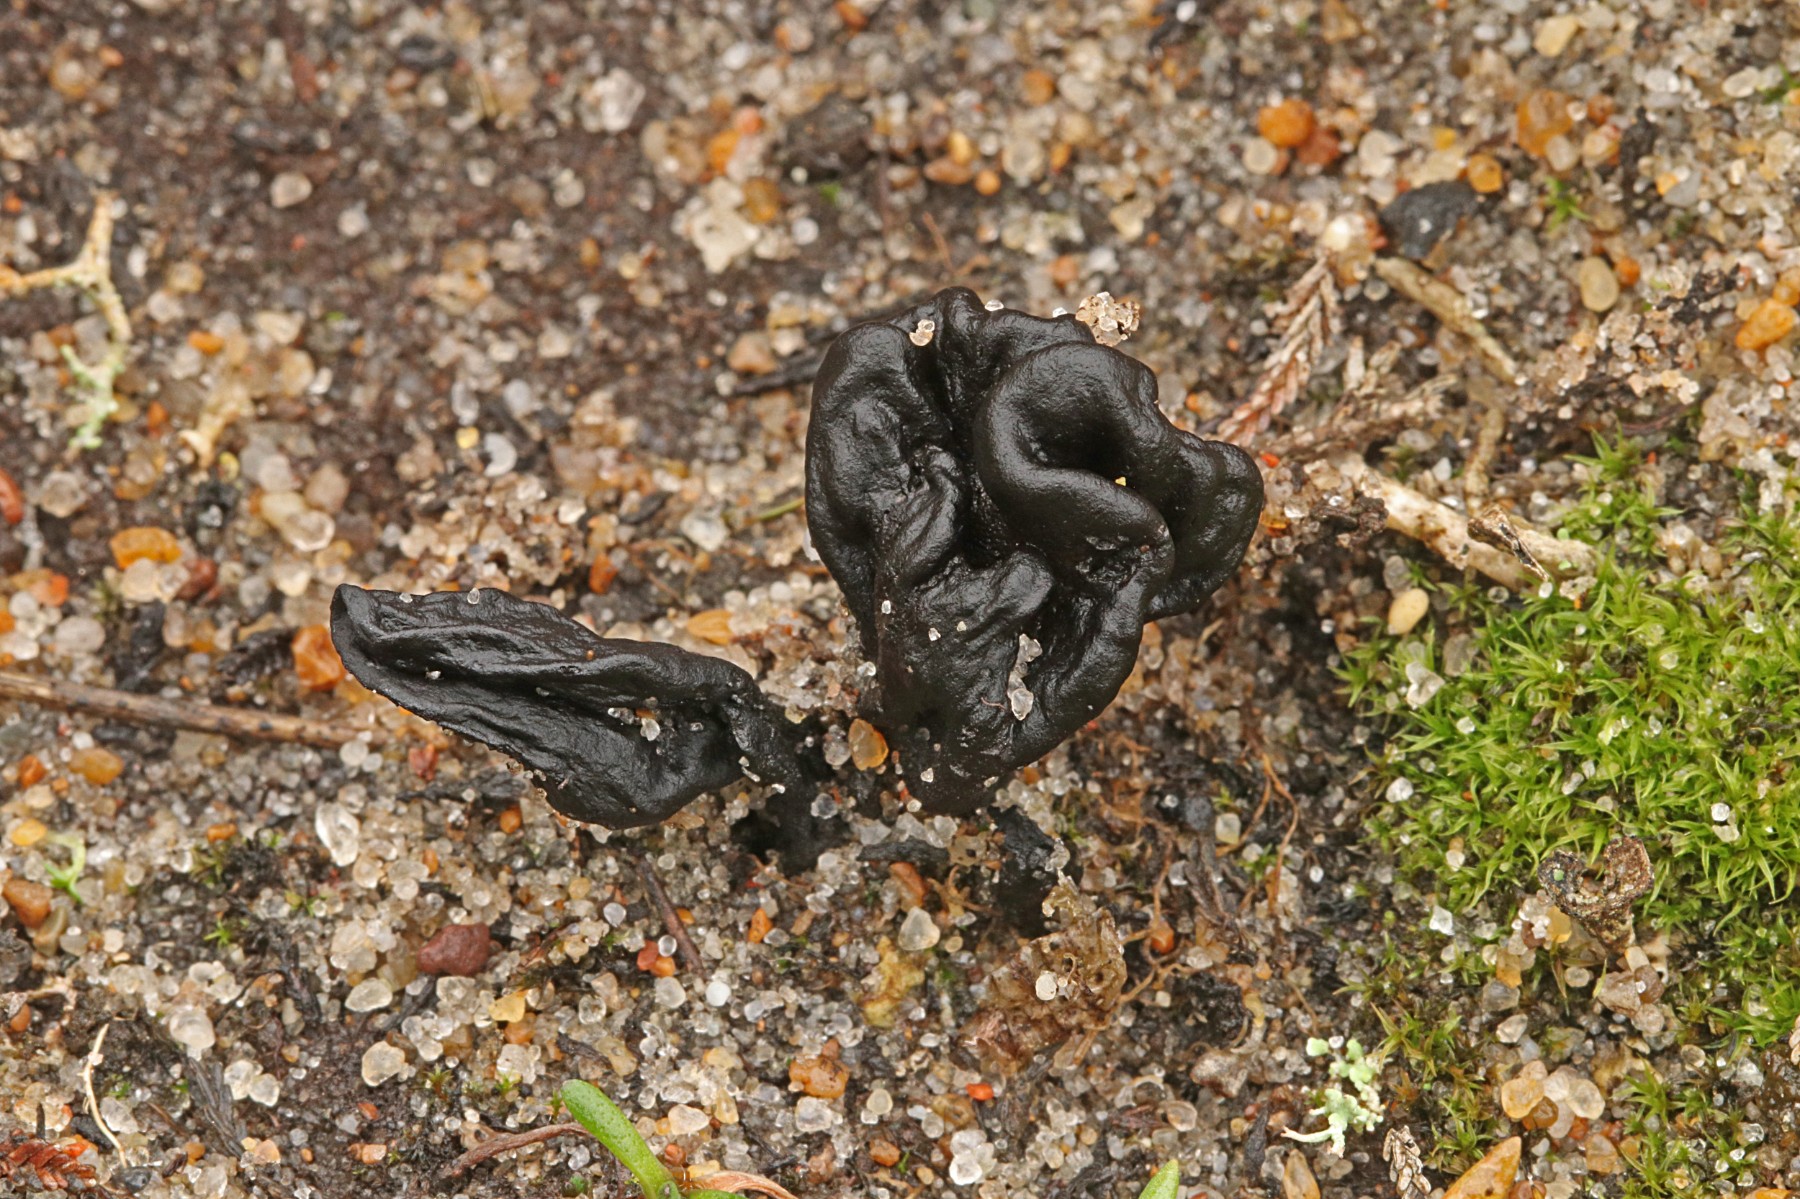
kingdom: Fungi
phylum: Ascomycota
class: Geoglossomycetes
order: Geoglossales
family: Geoglossaceae
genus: Sabuloglossum
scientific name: Sabuloglossum arenarium
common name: klit-jordtunge
